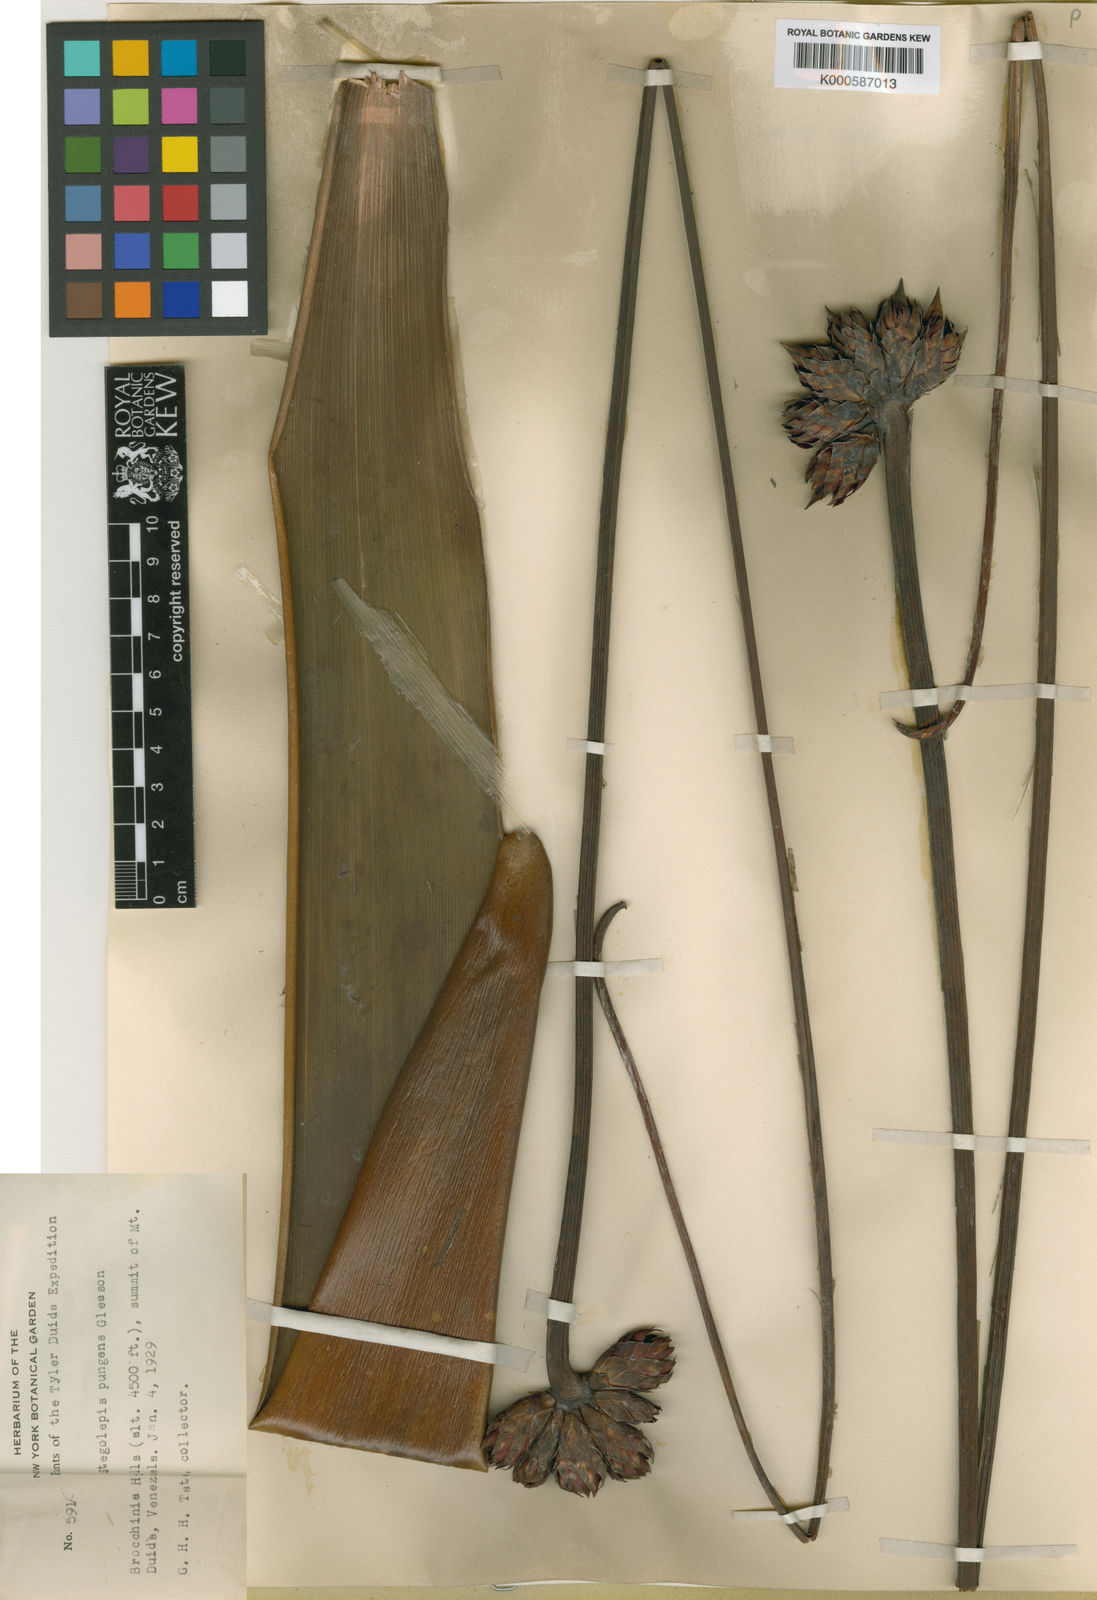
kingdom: Plantae
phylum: Tracheophyta
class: Liliopsida
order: Poales
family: Rapateaceae
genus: Stegolepis
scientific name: Stegolepis pungens
